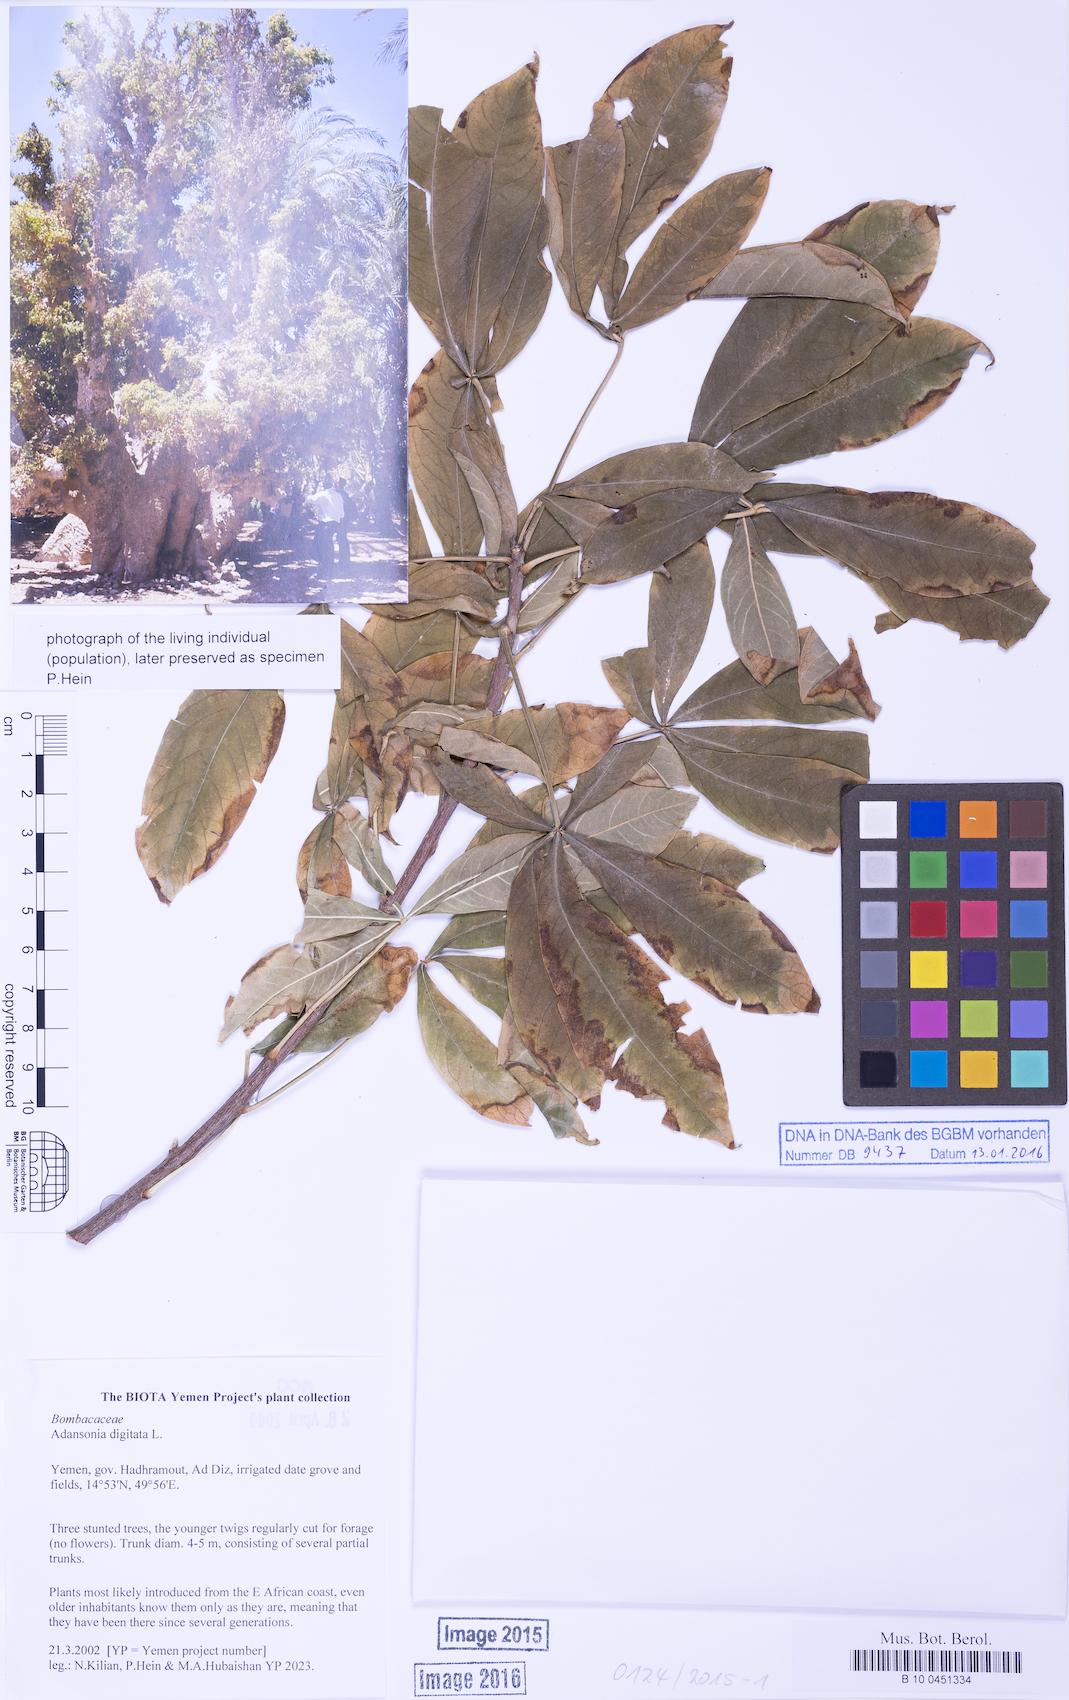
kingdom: Plantae
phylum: Tracheophyta
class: Magnoliopsida
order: Malvales
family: Malvaceae
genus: Adansonia
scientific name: Adansonia digitata
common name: Dead-rat-tree
